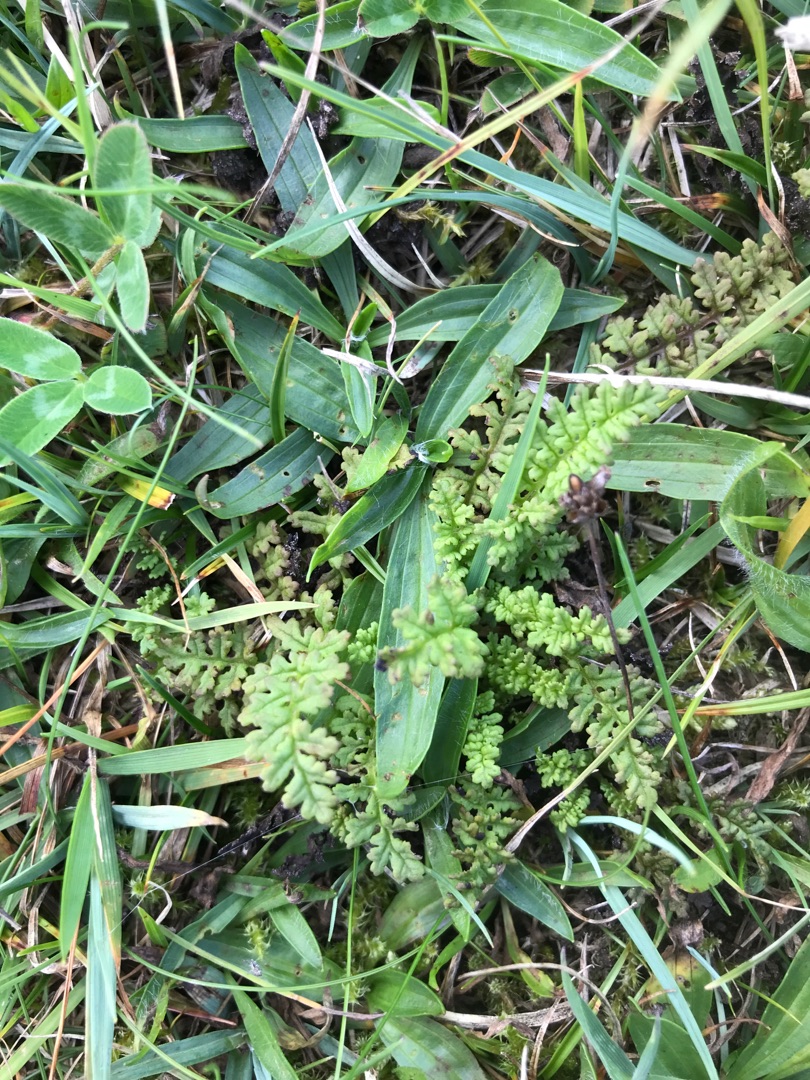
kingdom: Plantae
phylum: Tracheophyta
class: Magnoliopsida
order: Lamiales
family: Plantaginaceae
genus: Plantago
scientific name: Plantago lanceolata
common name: Lancet-vejbred
